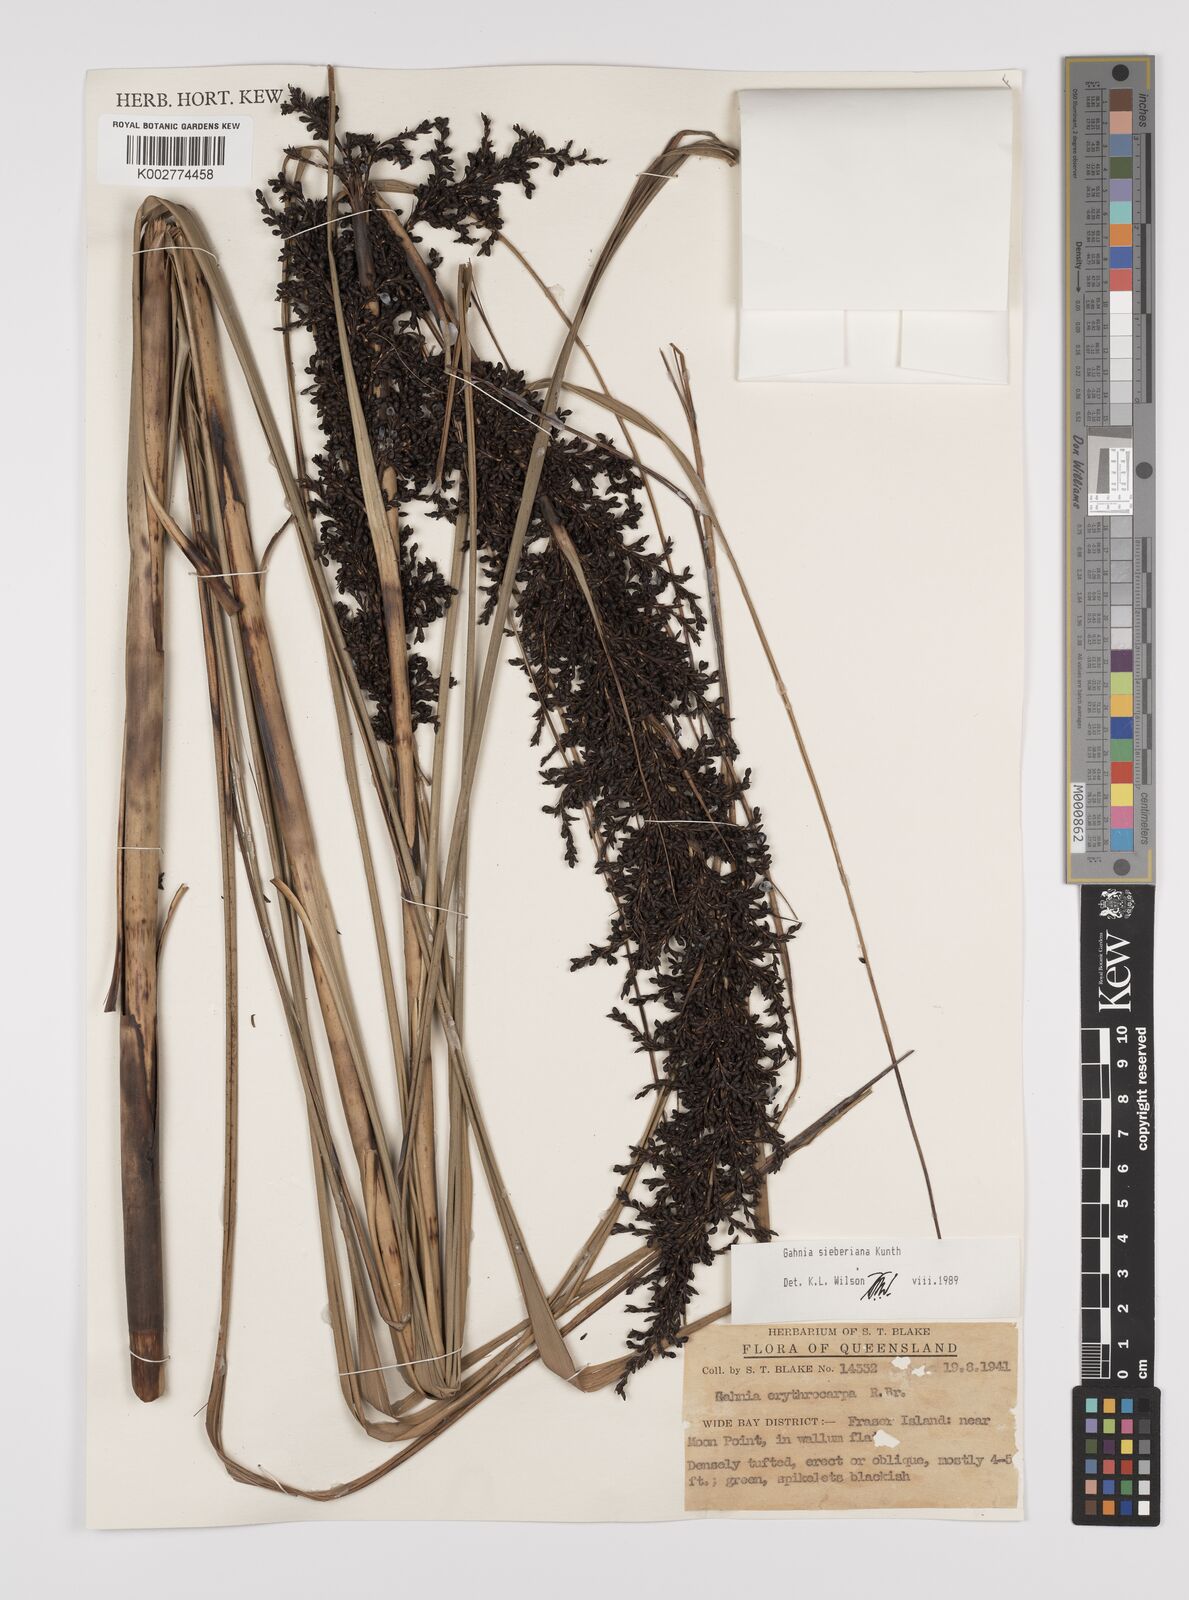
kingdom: Plantae
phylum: Tracheophyta
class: Liliopsida
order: Poales
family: Cyperaceae
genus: Gahnia
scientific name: Gahnia sieberiana
